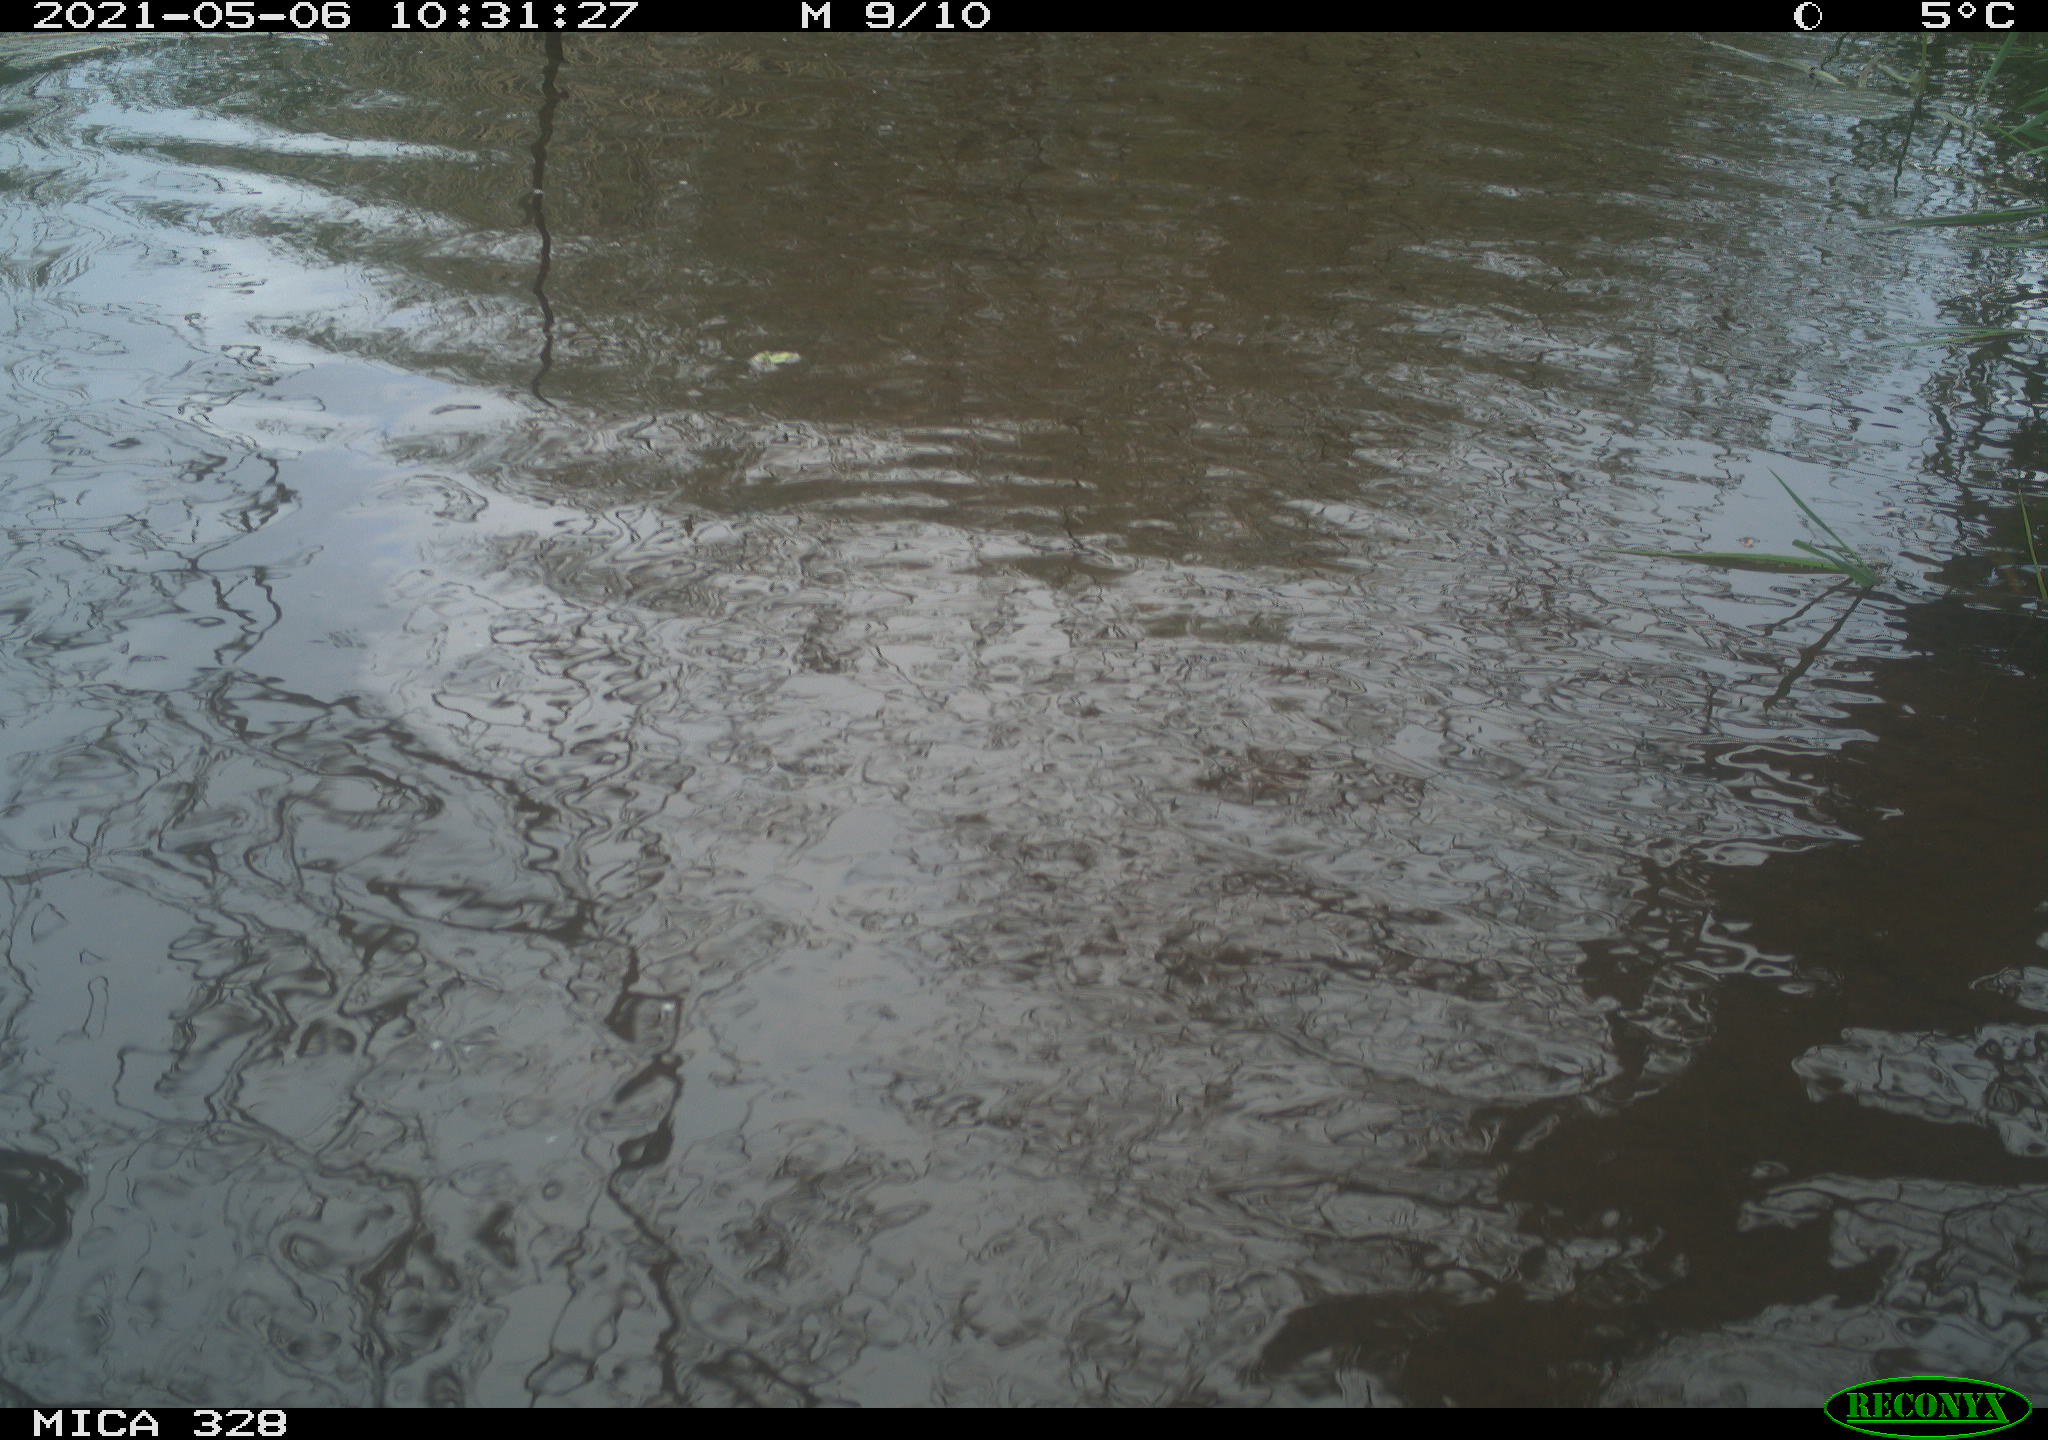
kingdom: Animalia
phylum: Chordata
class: Mammalia
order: Rodentia
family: Cricetidae
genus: Ondatra
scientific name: Ondatra zibethicus
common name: Muskrat
